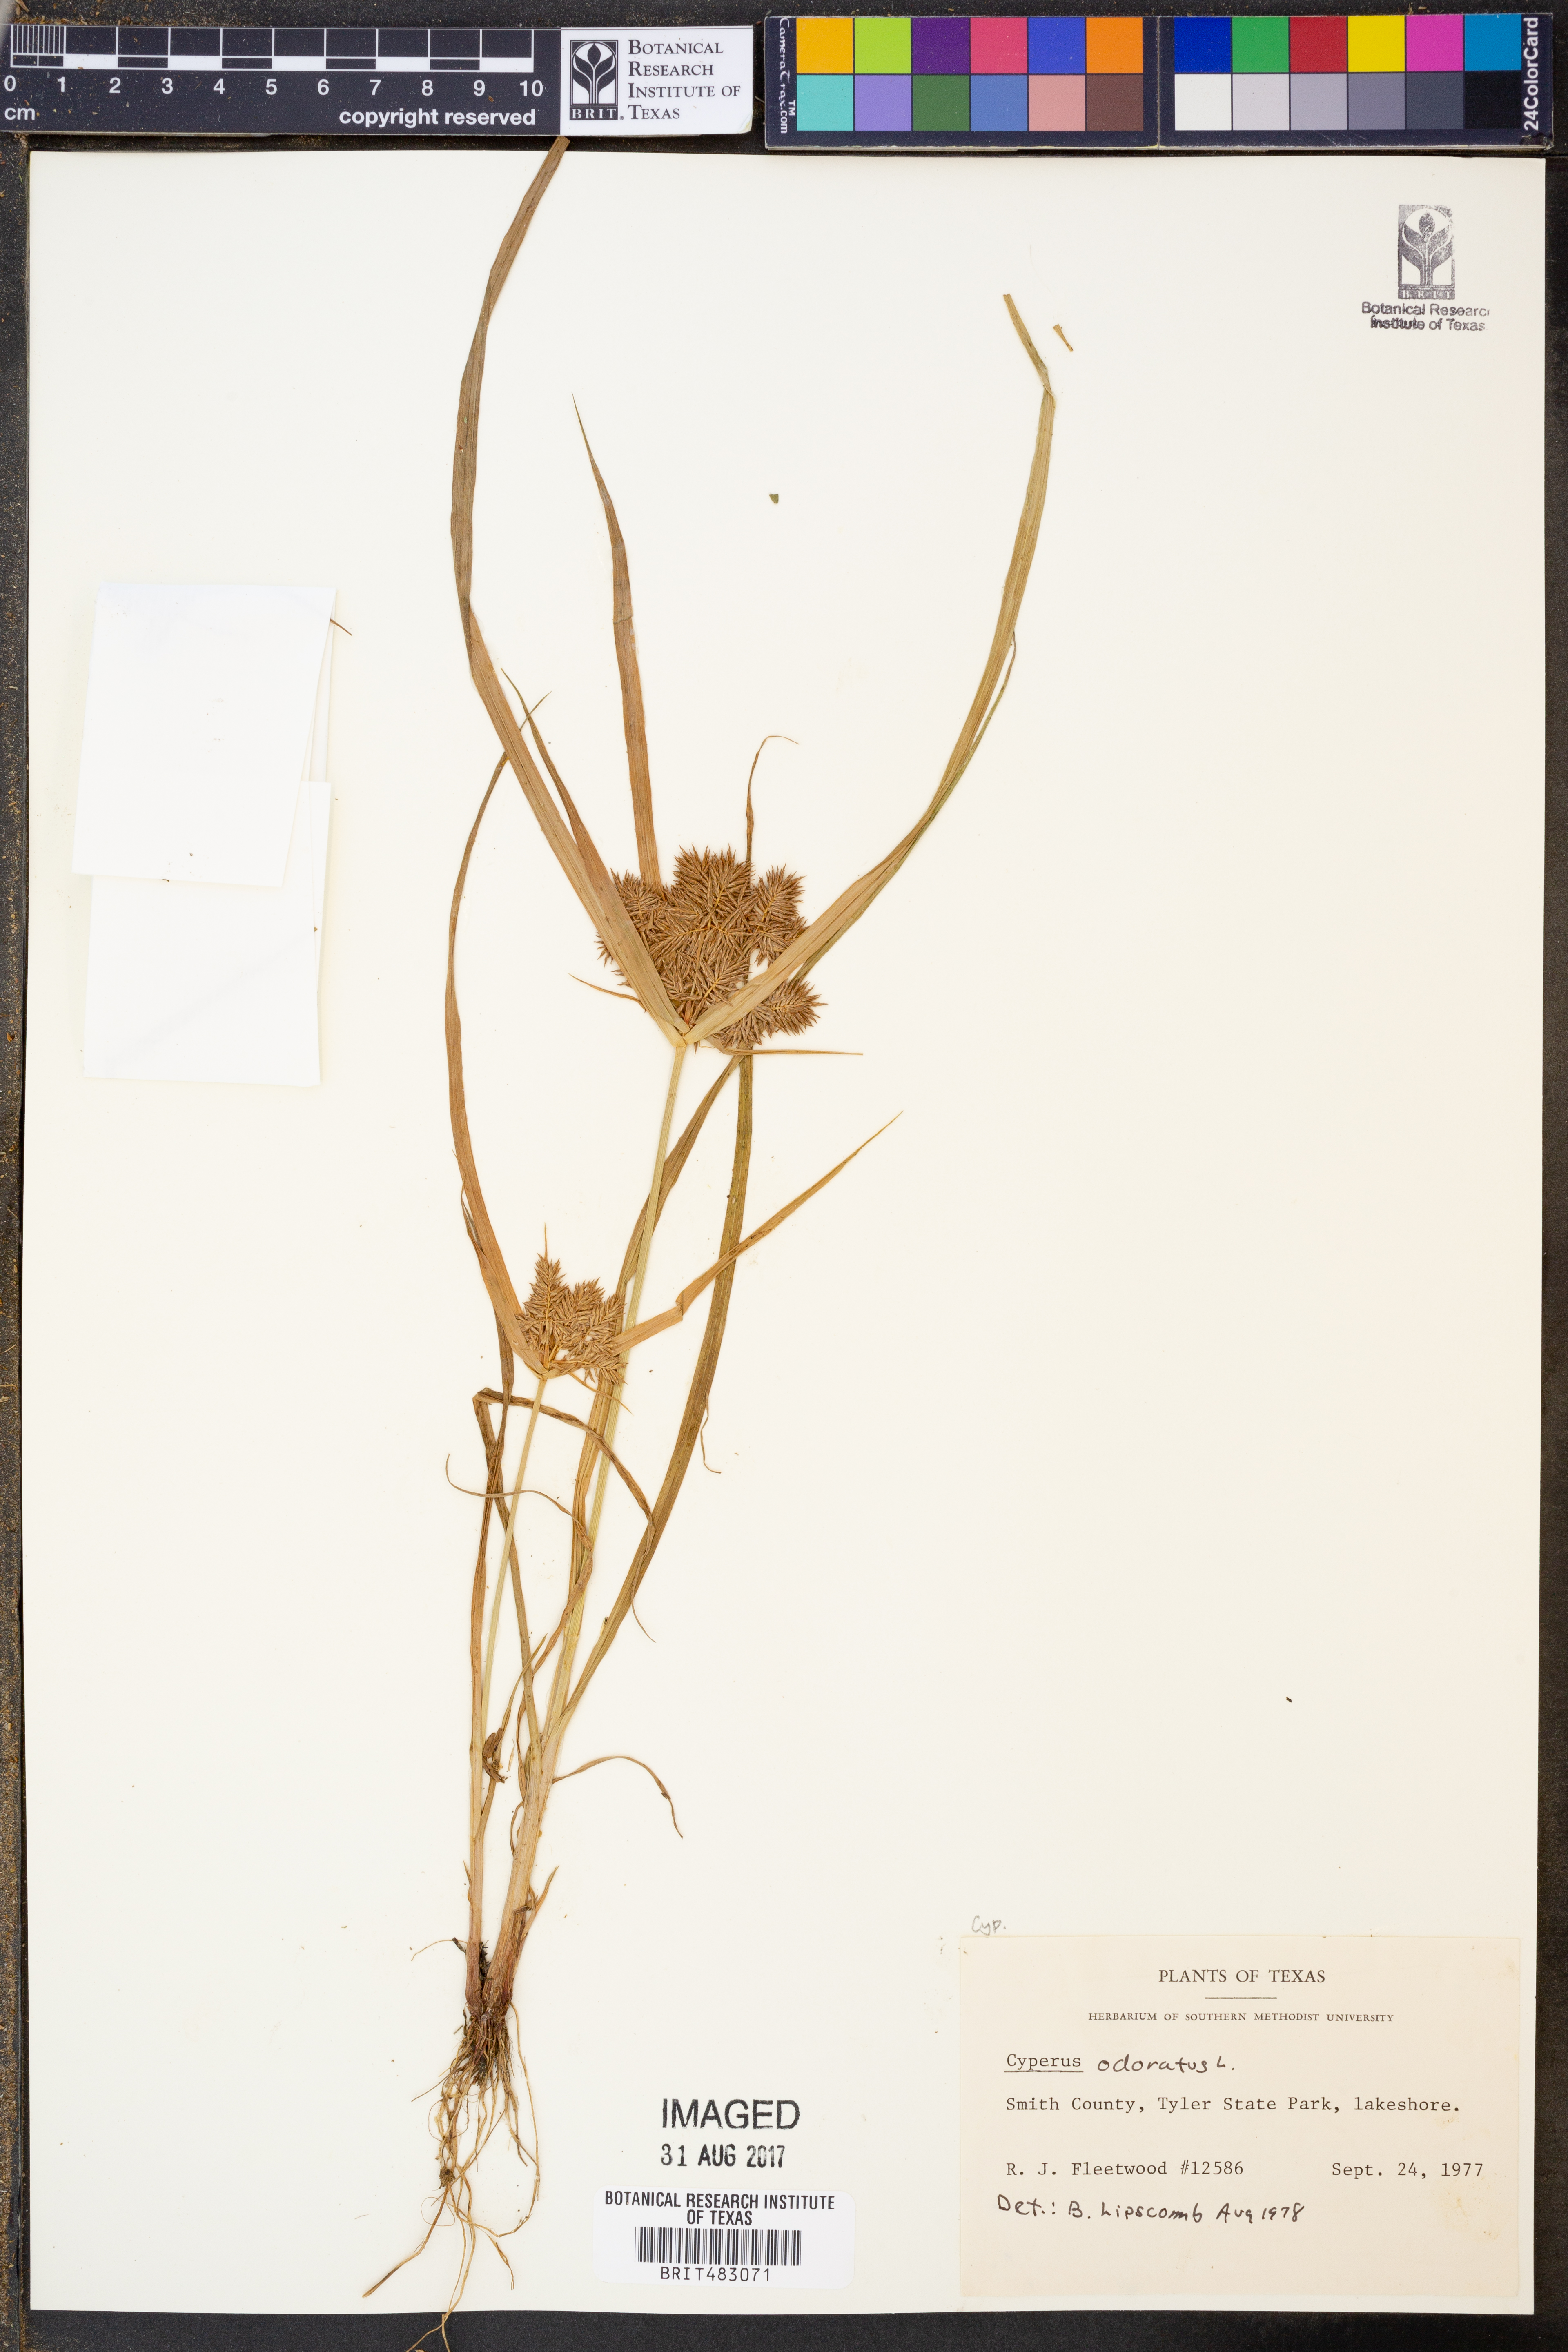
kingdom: Plantae
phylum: Tracheophyta
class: Liliopsida
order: Poales
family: Cyperaceae
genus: Cyperus
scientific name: Cyperus odoratus
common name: Fragrant flatsedge
